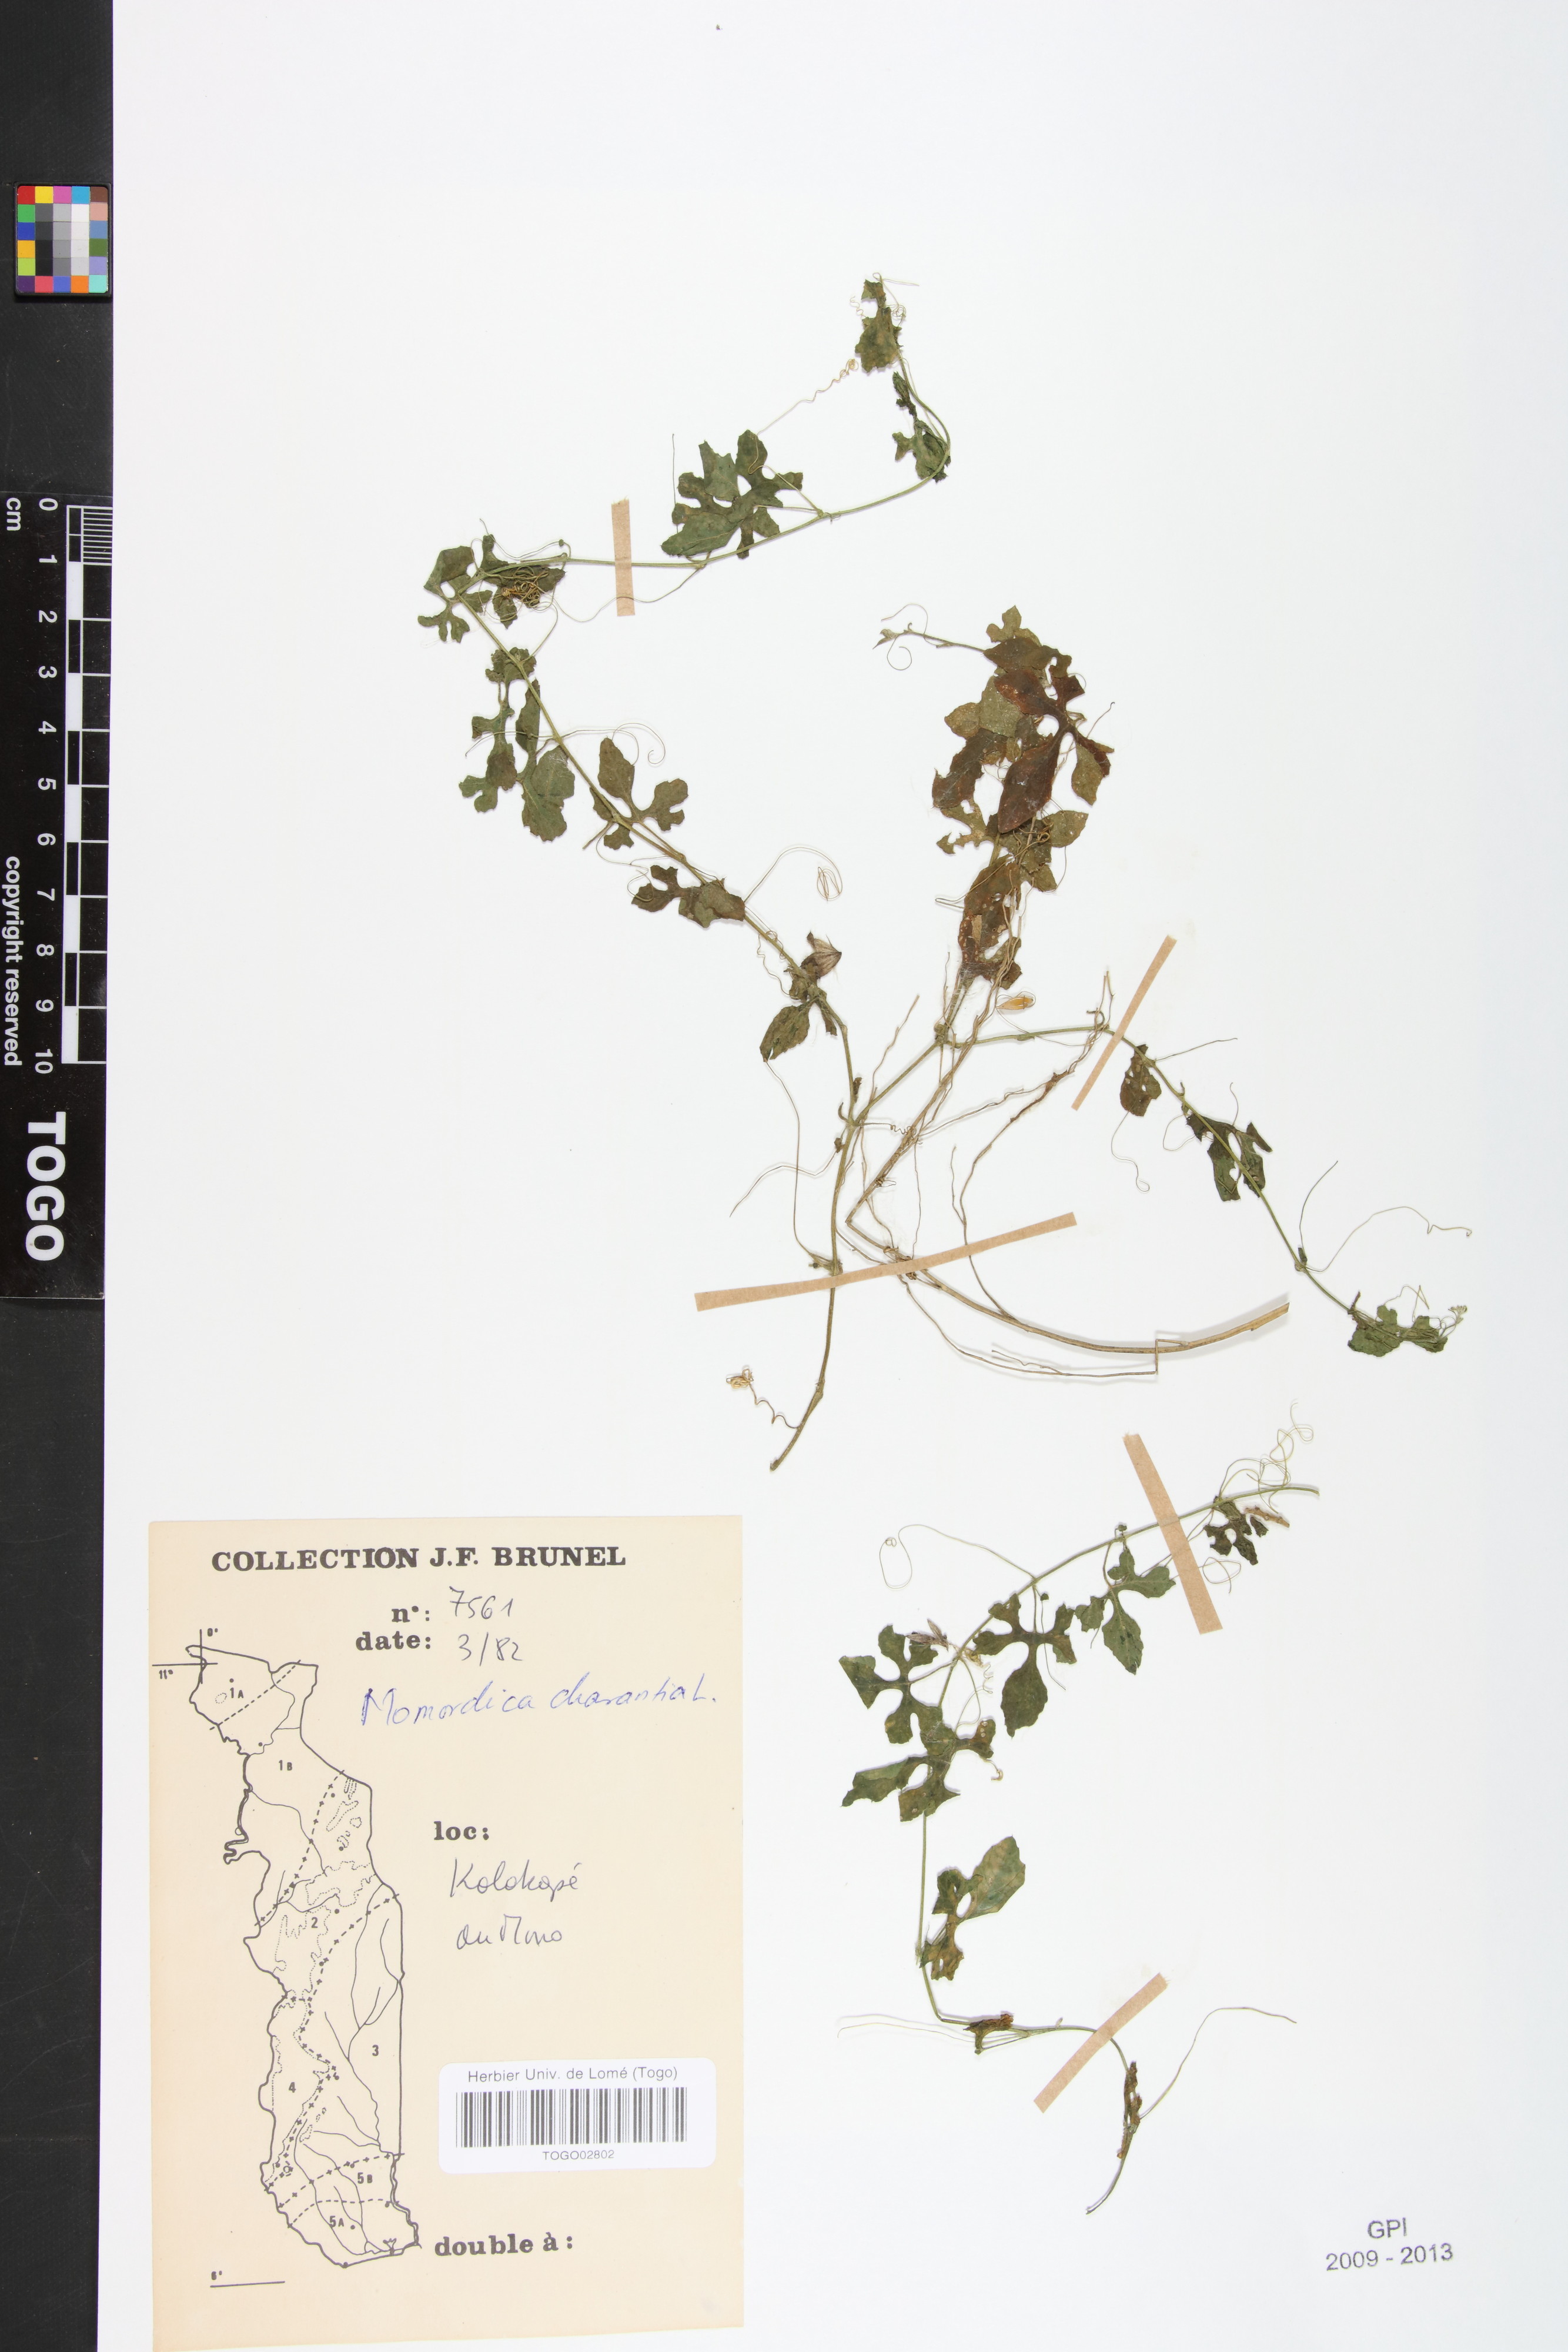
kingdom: Plantae
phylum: Tracheophyta
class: Magnoliopsida
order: Cucurbitales
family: Cucurbitaceae
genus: Momordica
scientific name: Momordica charantia
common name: Balsampear
